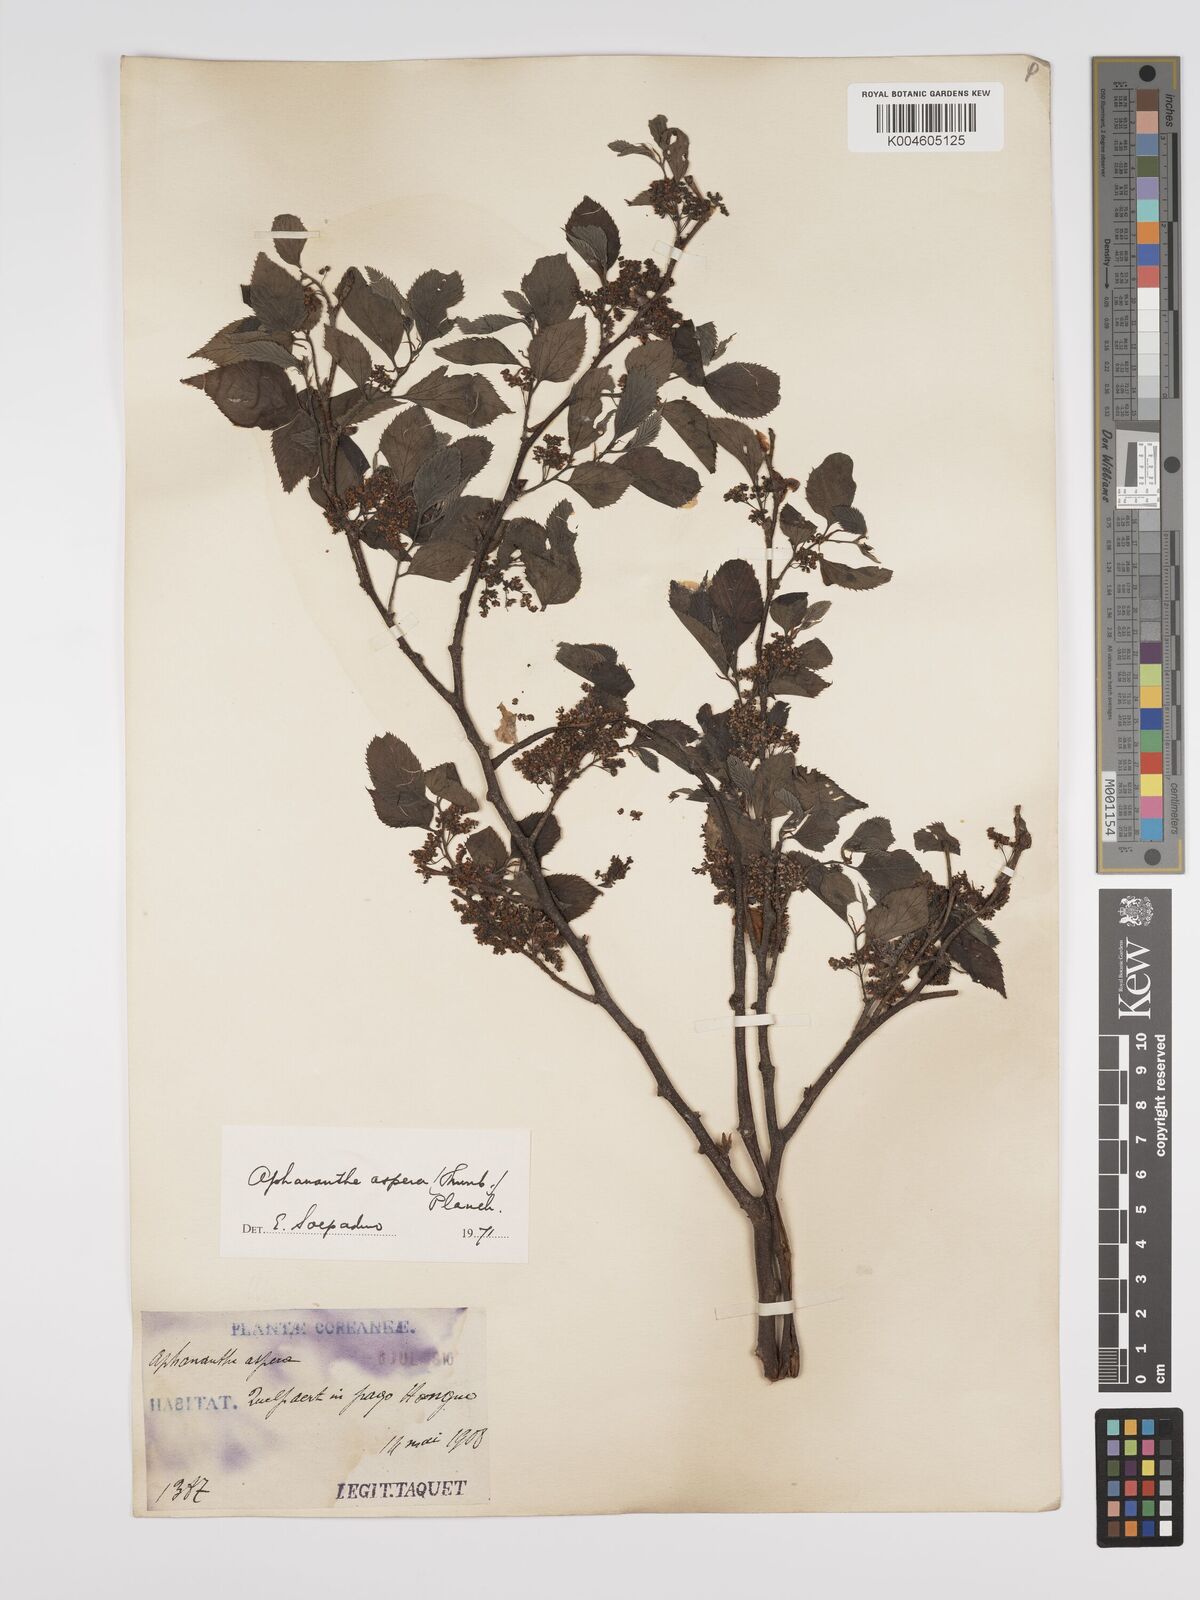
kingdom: Plantae
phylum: Tracheophyta
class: Magnoliopsida
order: Rosales
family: Cannabaceae
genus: Aphananthe
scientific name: Aphananthe aspera
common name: Mukutree
